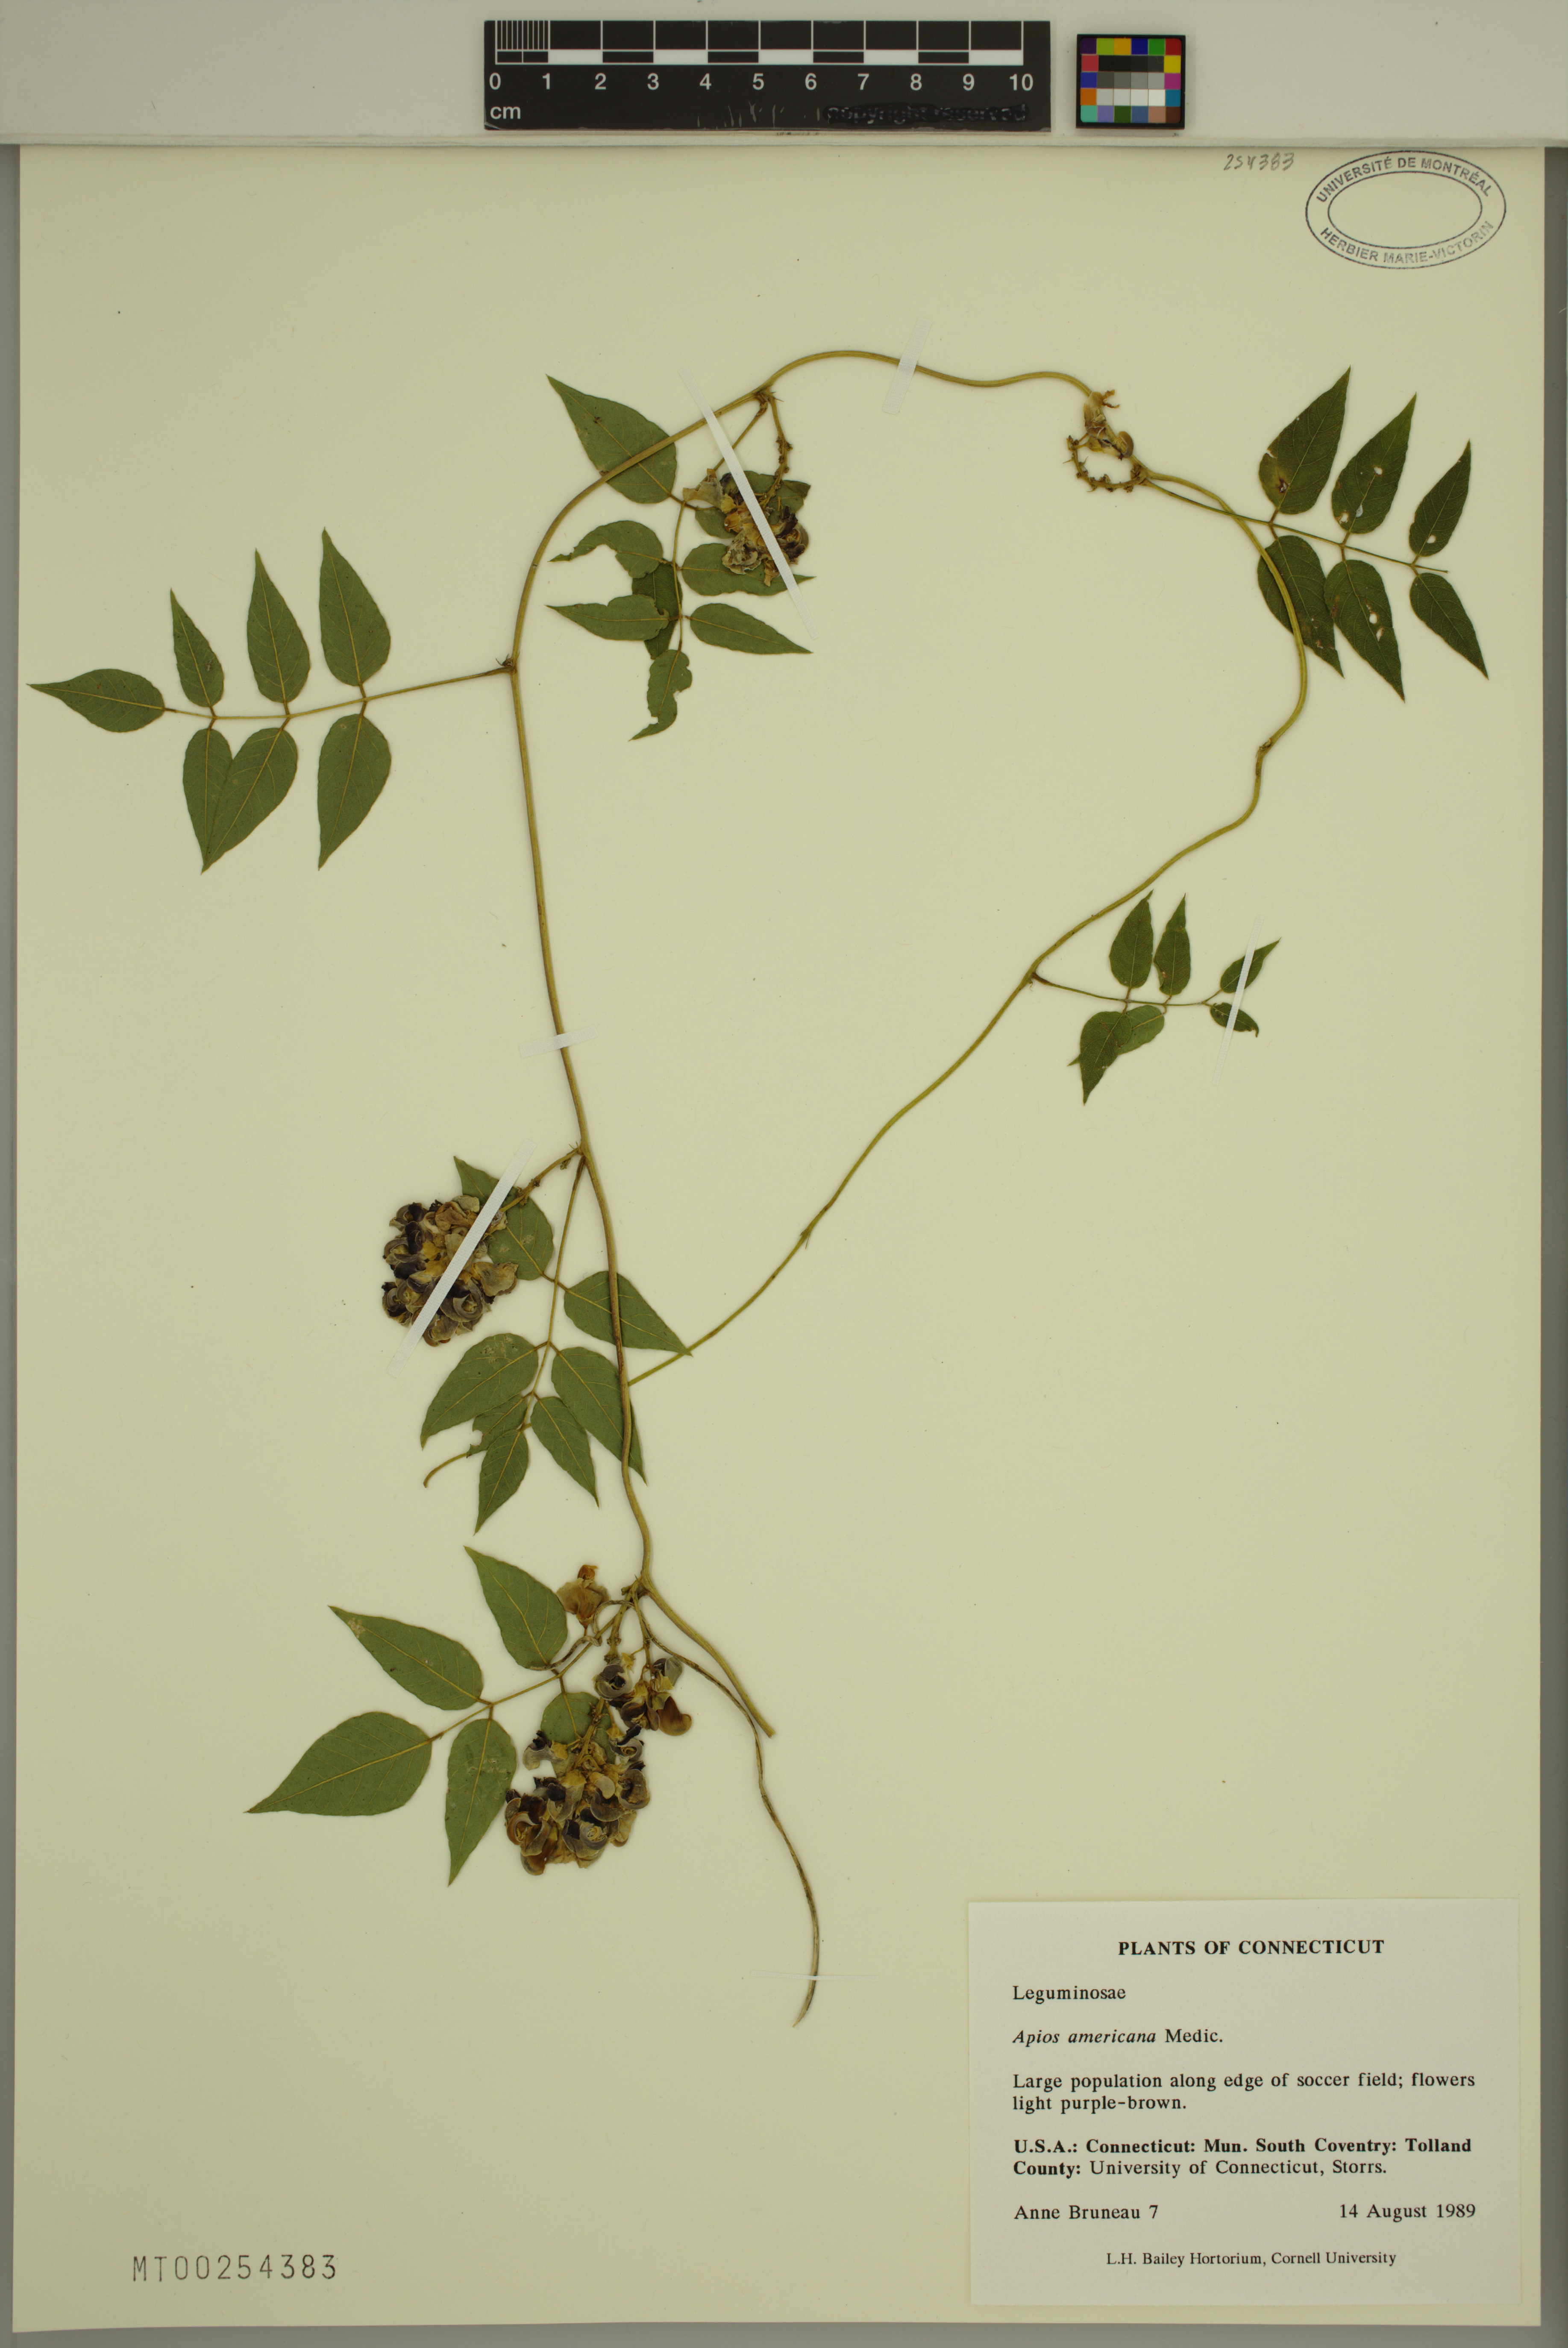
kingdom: Plantae
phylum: Tracheophyta
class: Magnoliopsida
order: Fabales
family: Fabaceae
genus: Apios
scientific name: Apios americana
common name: American potato-bean
